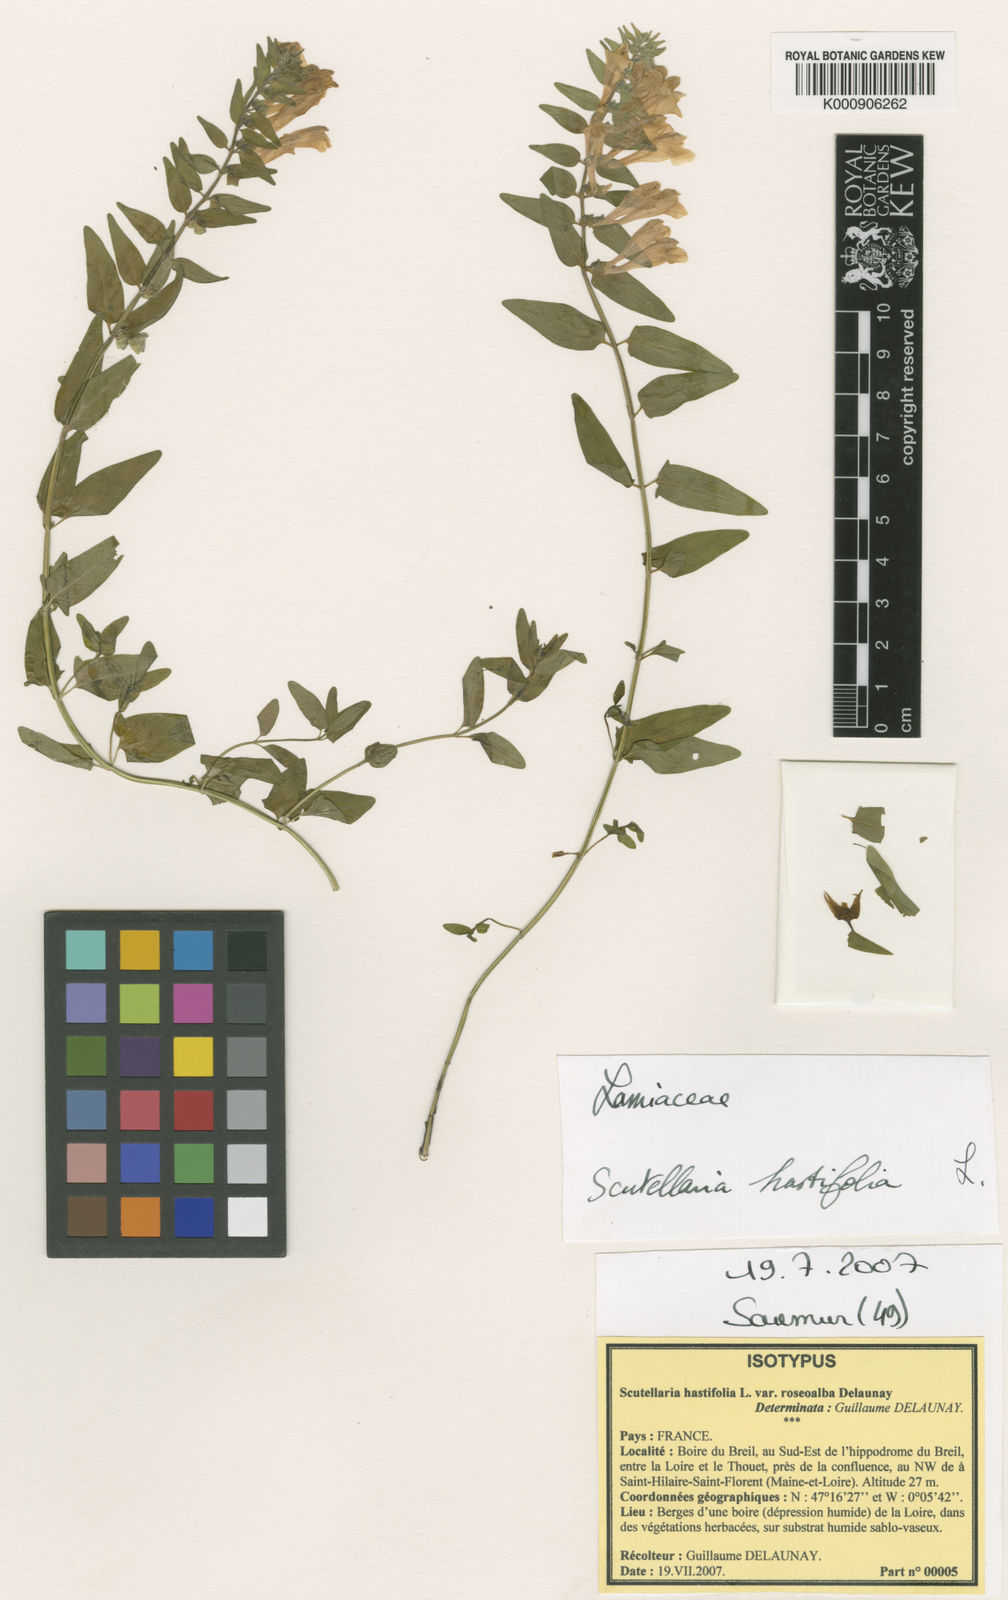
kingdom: Plantae
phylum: Tracheophyta
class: Magnoliopsida
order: Lamiales
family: Lamiaceae
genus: Scutellaria
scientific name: Scutellaria hastifolia
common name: Norfolk skullcap
